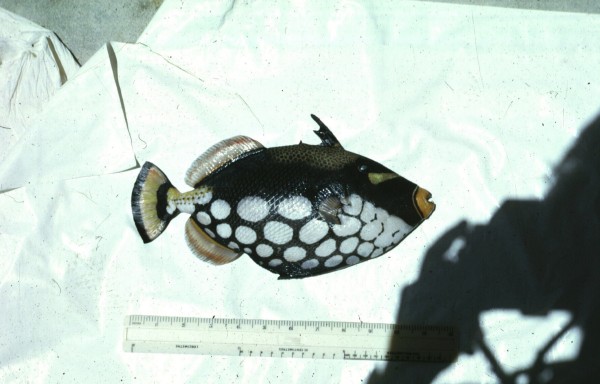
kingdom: Animalia
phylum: Chordata
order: Tetraodontiformes
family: Balistidae
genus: Balistoides
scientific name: Balistoides conspicillum
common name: Clown triggerfish
